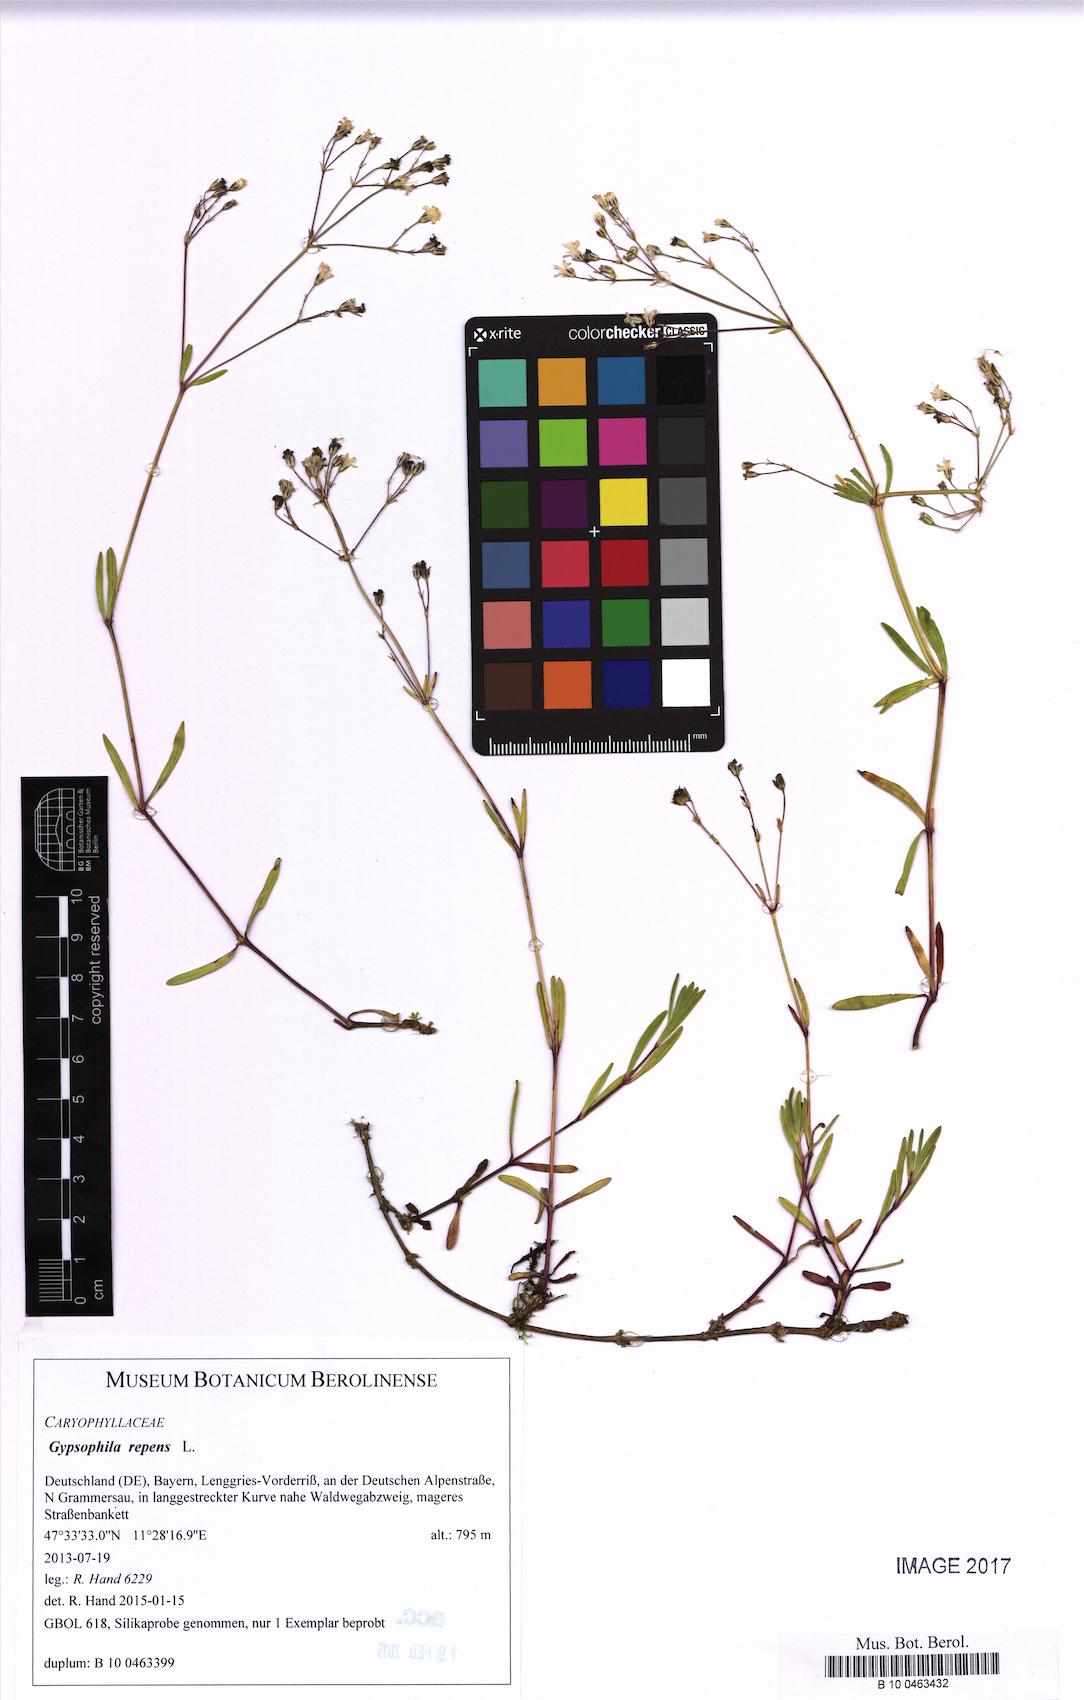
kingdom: Plantae
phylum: Tracheophyta
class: Magnoliopsida
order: Caryophyllales
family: Caryophyllaceae
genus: Gypsophila
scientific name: Gypsophila repens
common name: Creeping baby's-breath
